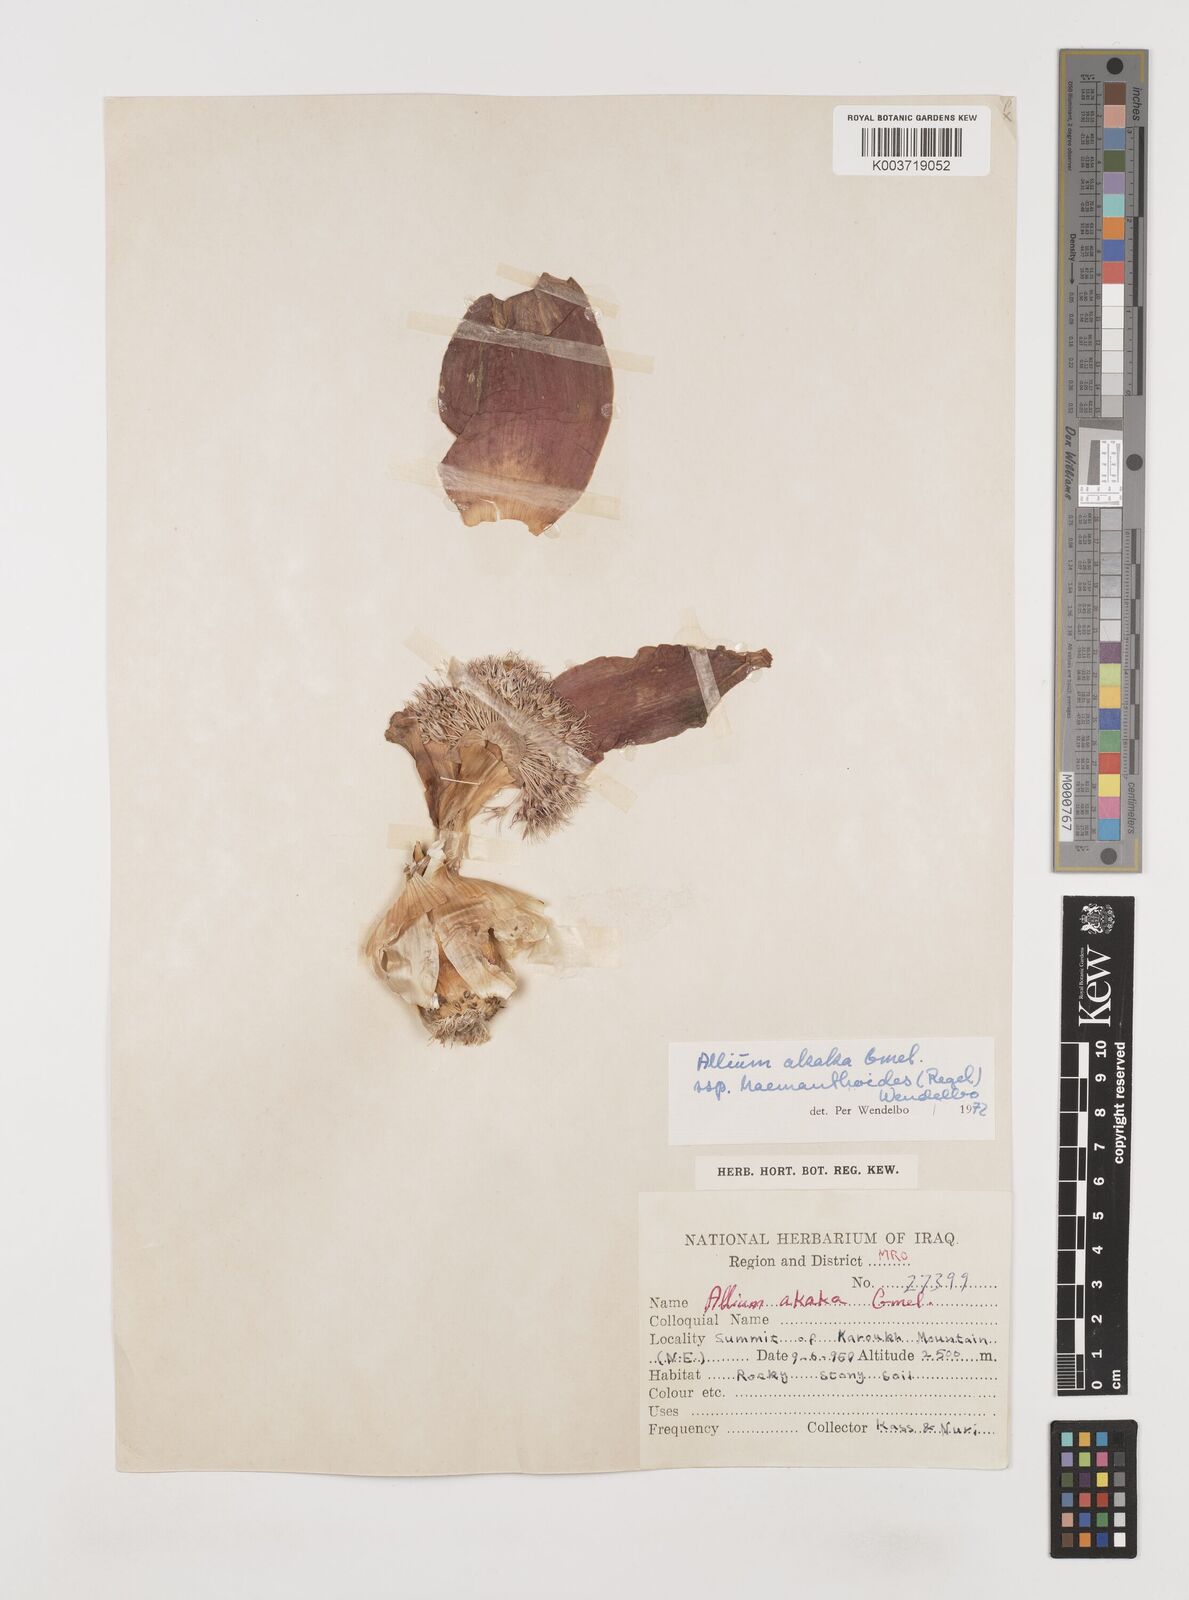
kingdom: Plantae
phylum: Tracheophyta
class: Liliopsida
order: Asparagales
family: Amaryllidaceae
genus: Allium
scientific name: Allium haemanthoides
